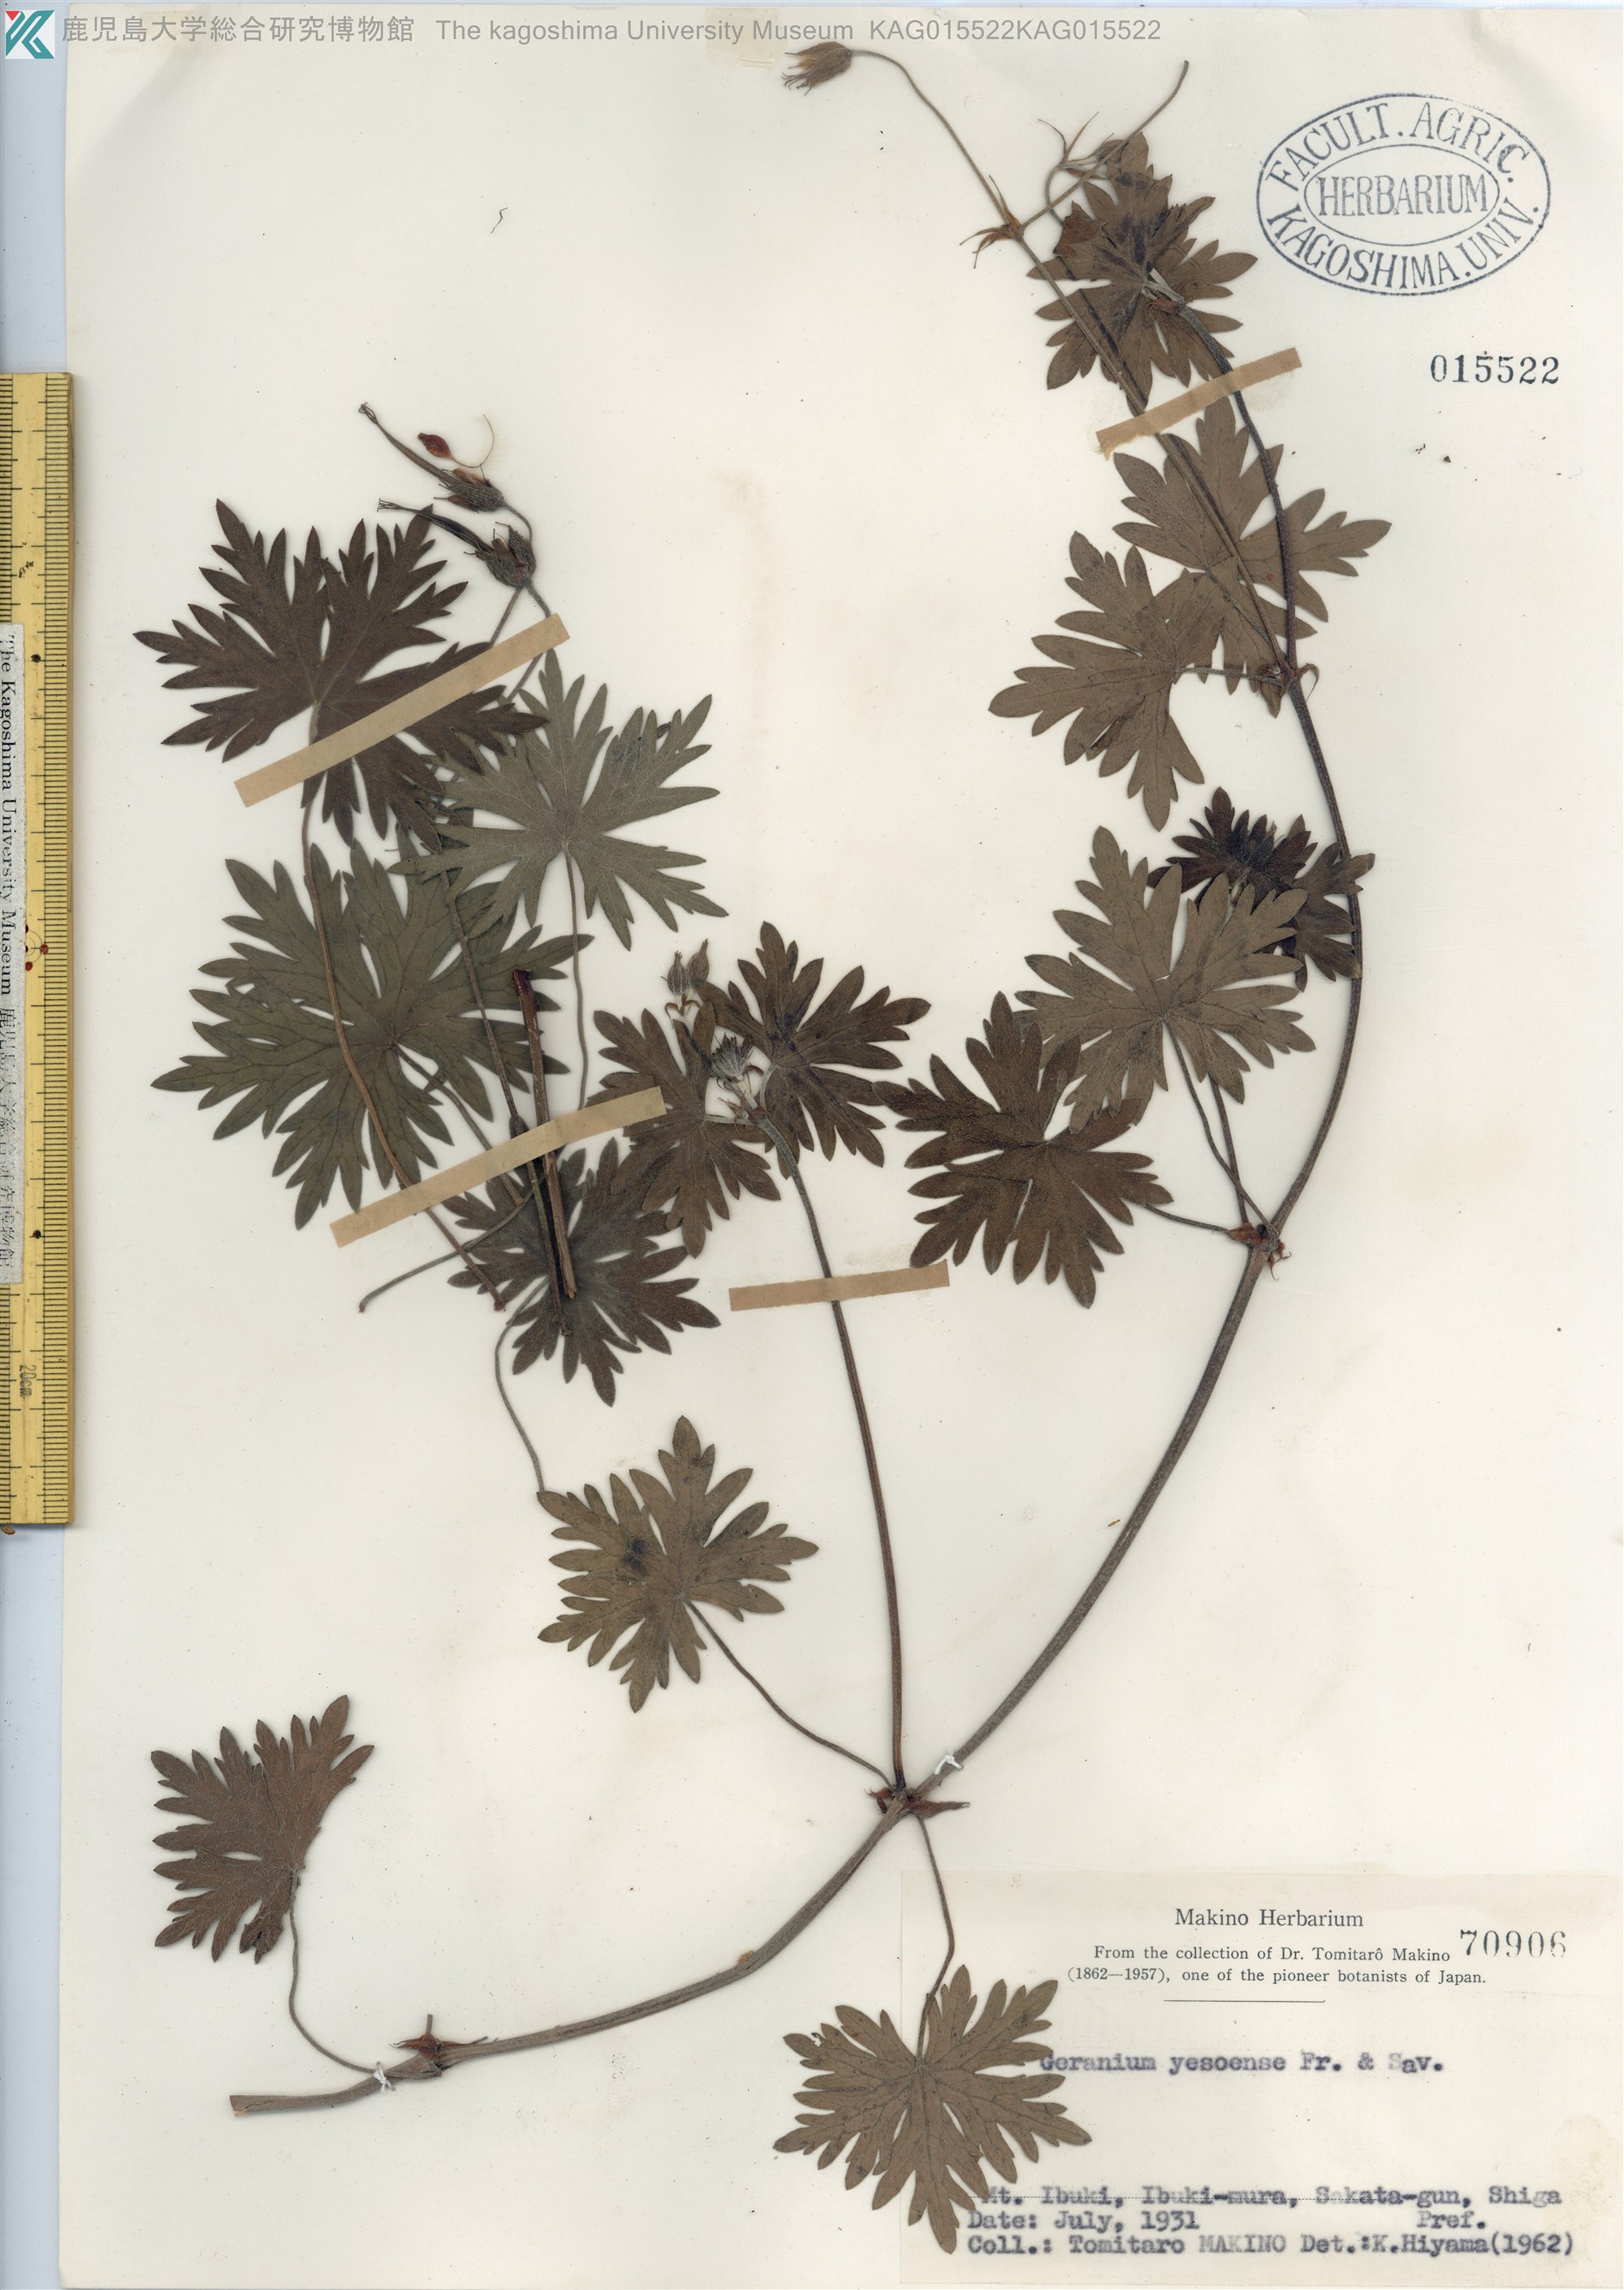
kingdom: Plantae
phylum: Tracheophyta
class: Magnoliopsida
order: Geraniales
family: Geraniaceae
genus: Geranium
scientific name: Geranium yesoense
